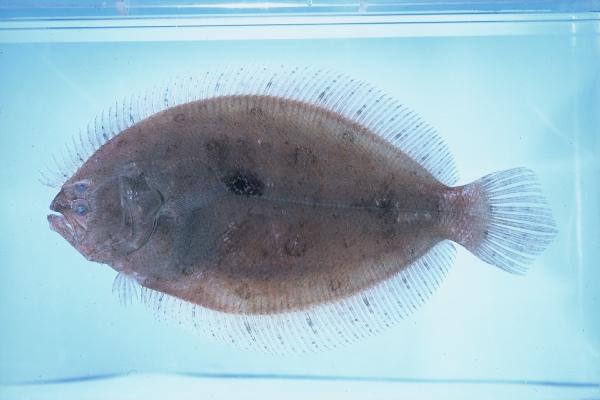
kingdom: Animalia
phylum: Chordata
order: Pleuronectiformes
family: Paralichthyidae
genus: Pseudorhombus
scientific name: Pseudorhombus arsius
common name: Largetooth flounder
